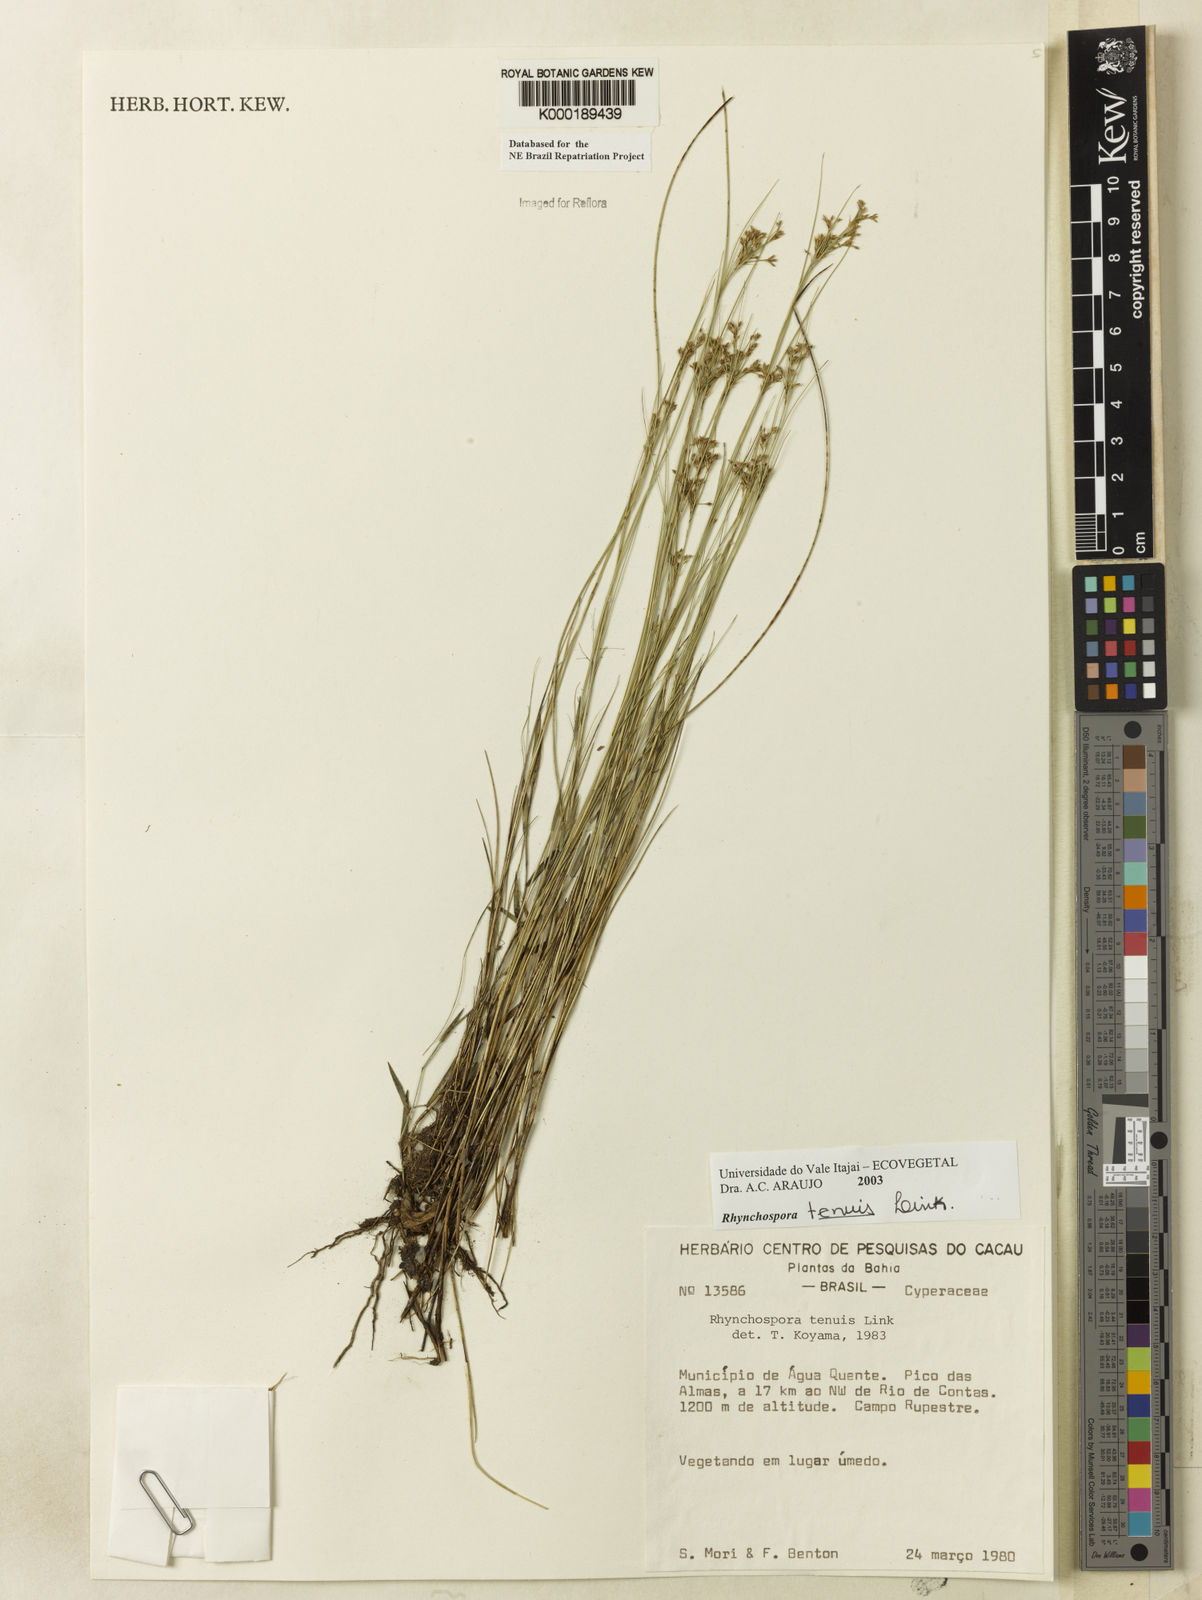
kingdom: Plantae
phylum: Tracheophyta
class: Liliopsida
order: Poales
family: Cyperaceae
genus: Rhynchospora
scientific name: Rhynchospora tenuis
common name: Quill beaksedge
